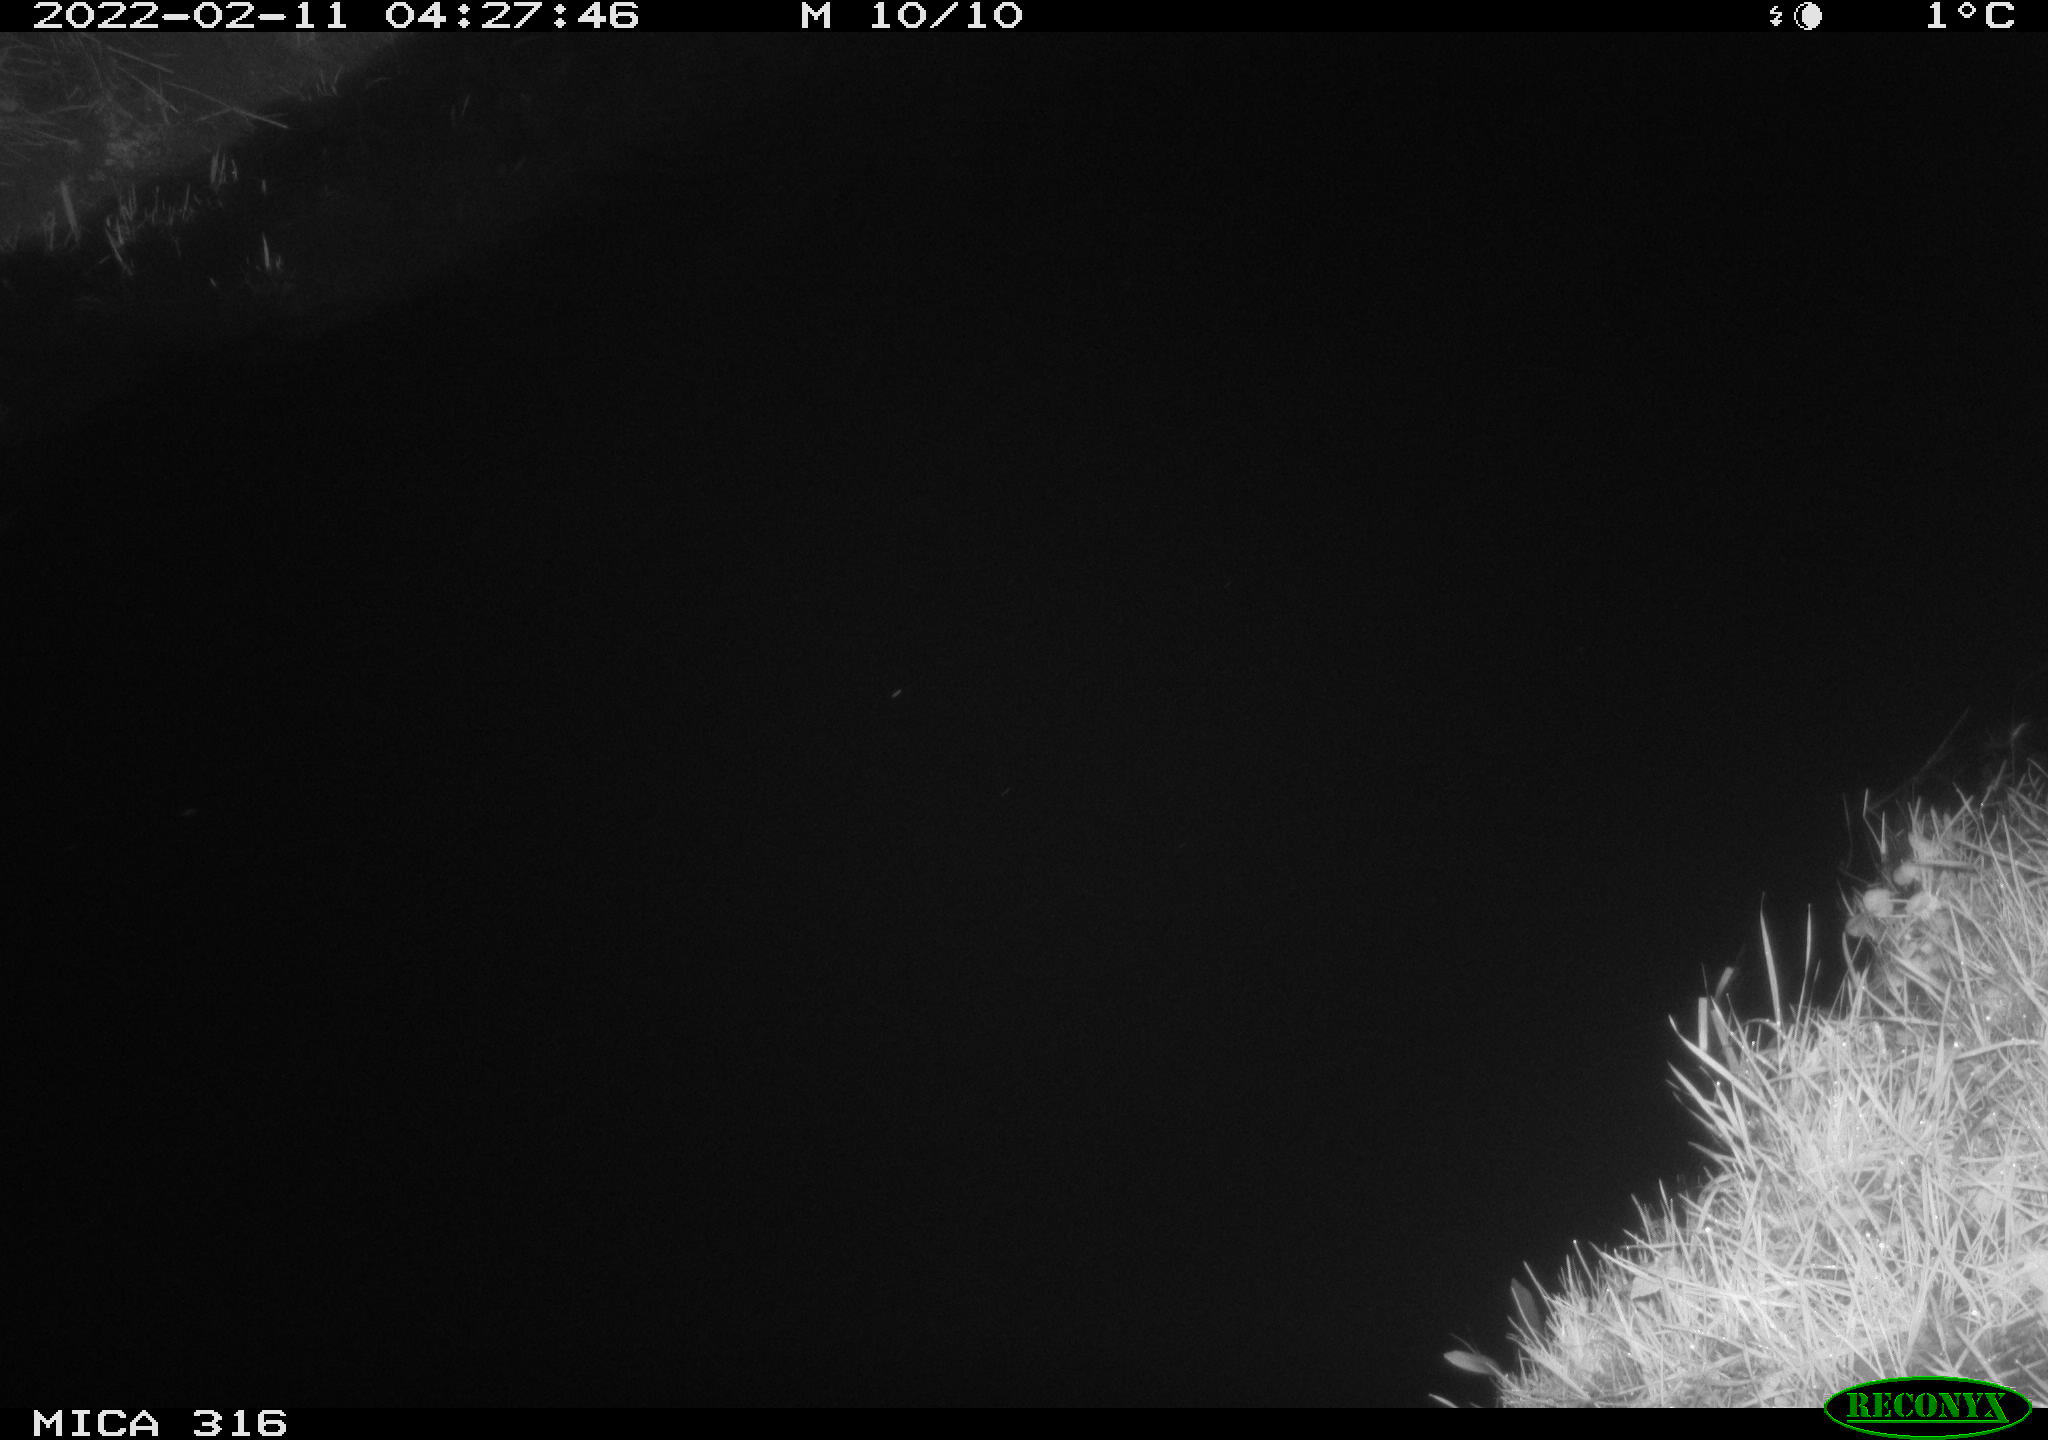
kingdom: Animalia
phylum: Chordata
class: Aves
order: Anseriformes
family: Anatidae
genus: Anas
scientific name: Anas platyrhynchos
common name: Mallard
